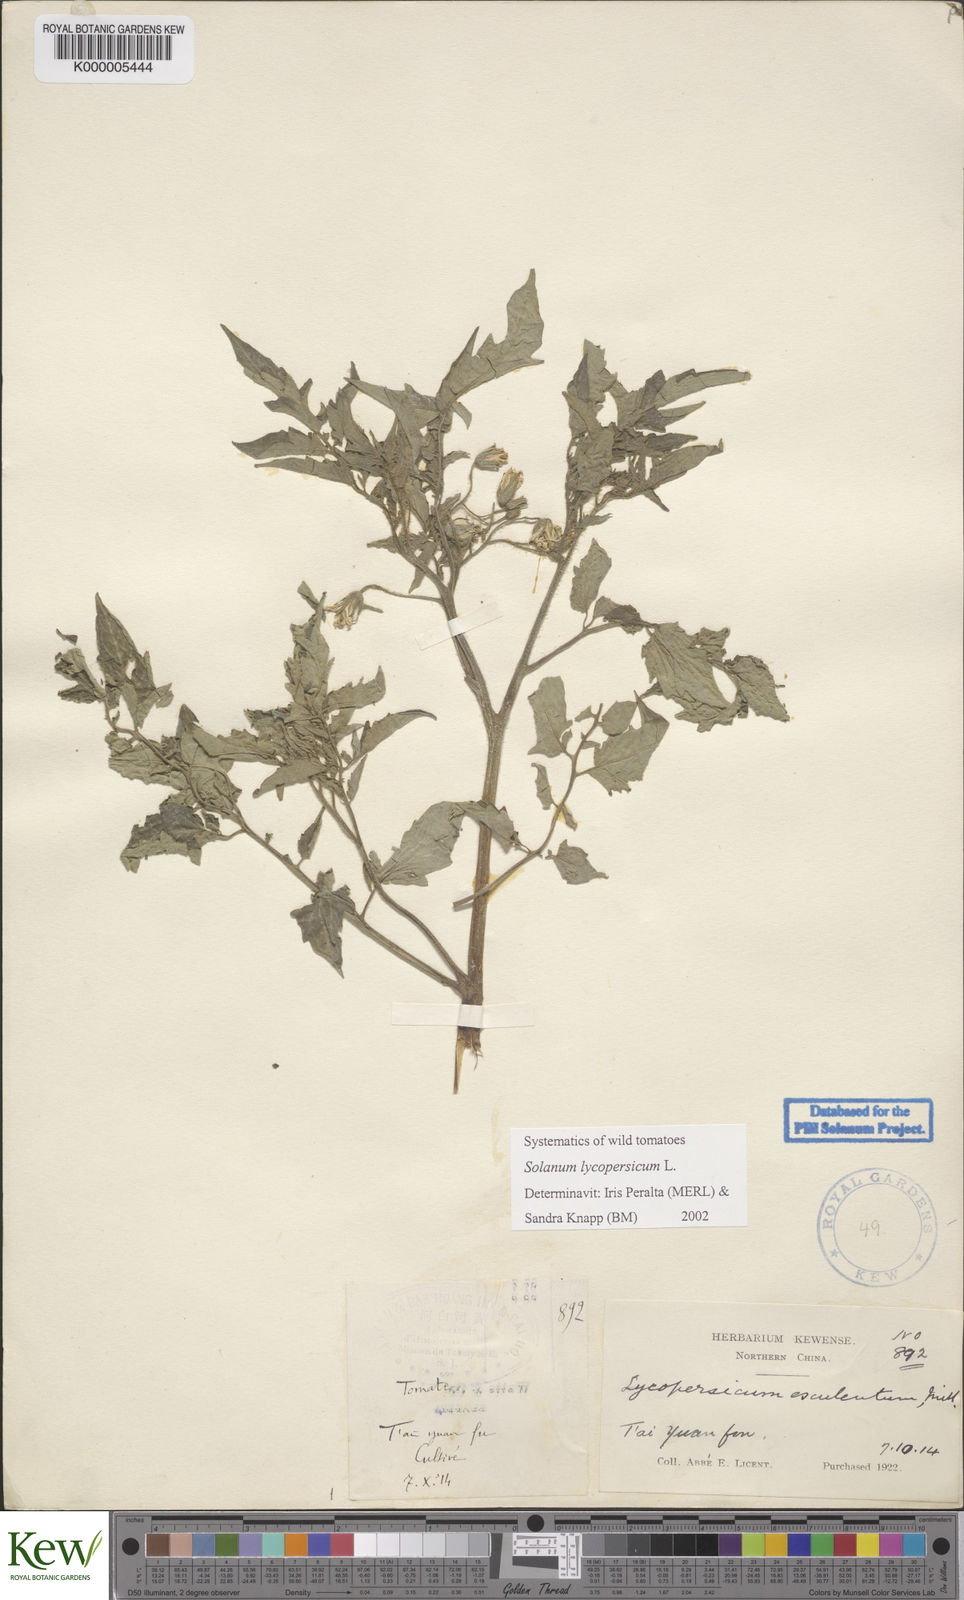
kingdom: Plantae
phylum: Tracheophyta
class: Magnoliopsida
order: Solanales
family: Solanaceae
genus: Solanum
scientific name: Solanum lycopersicum
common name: Garden tomato
